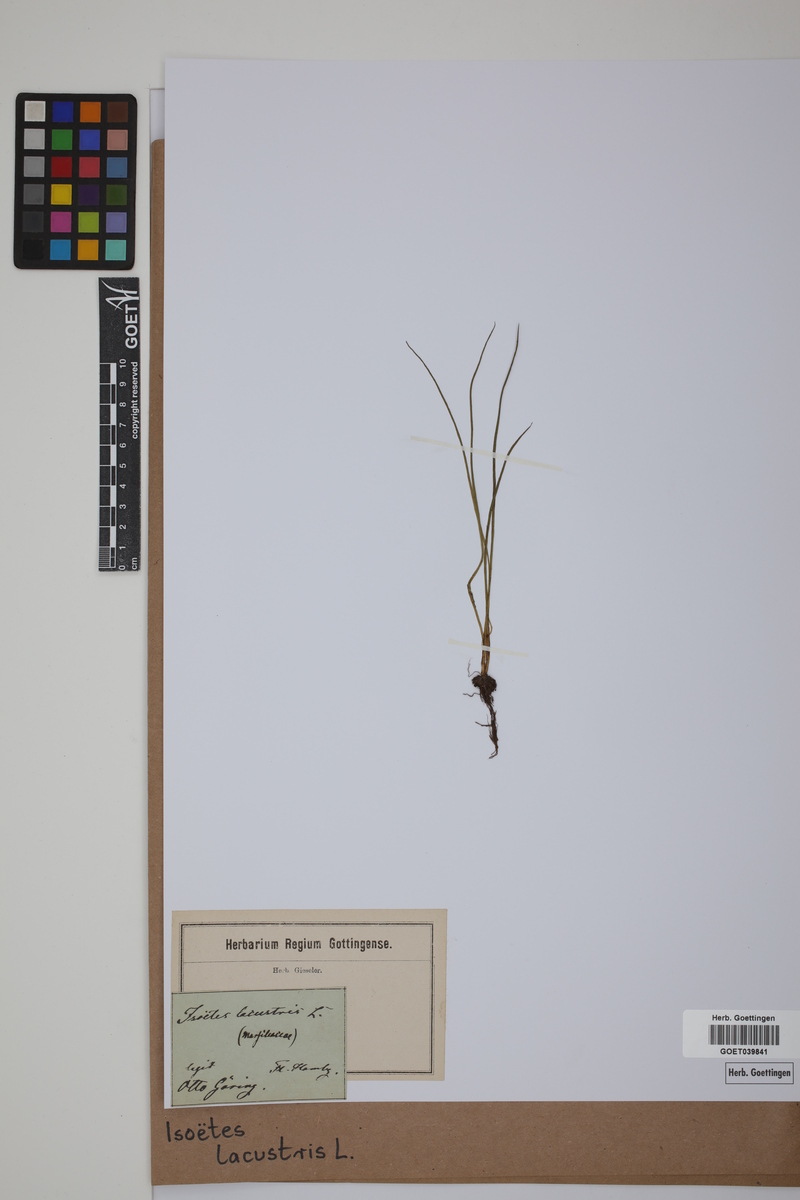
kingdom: Plantae
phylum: Tracheophyta
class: Lycopodiopsida
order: Isoetales
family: Isoetaceae
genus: Isoetes
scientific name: Isoetes lacustris
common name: Common quillwort
